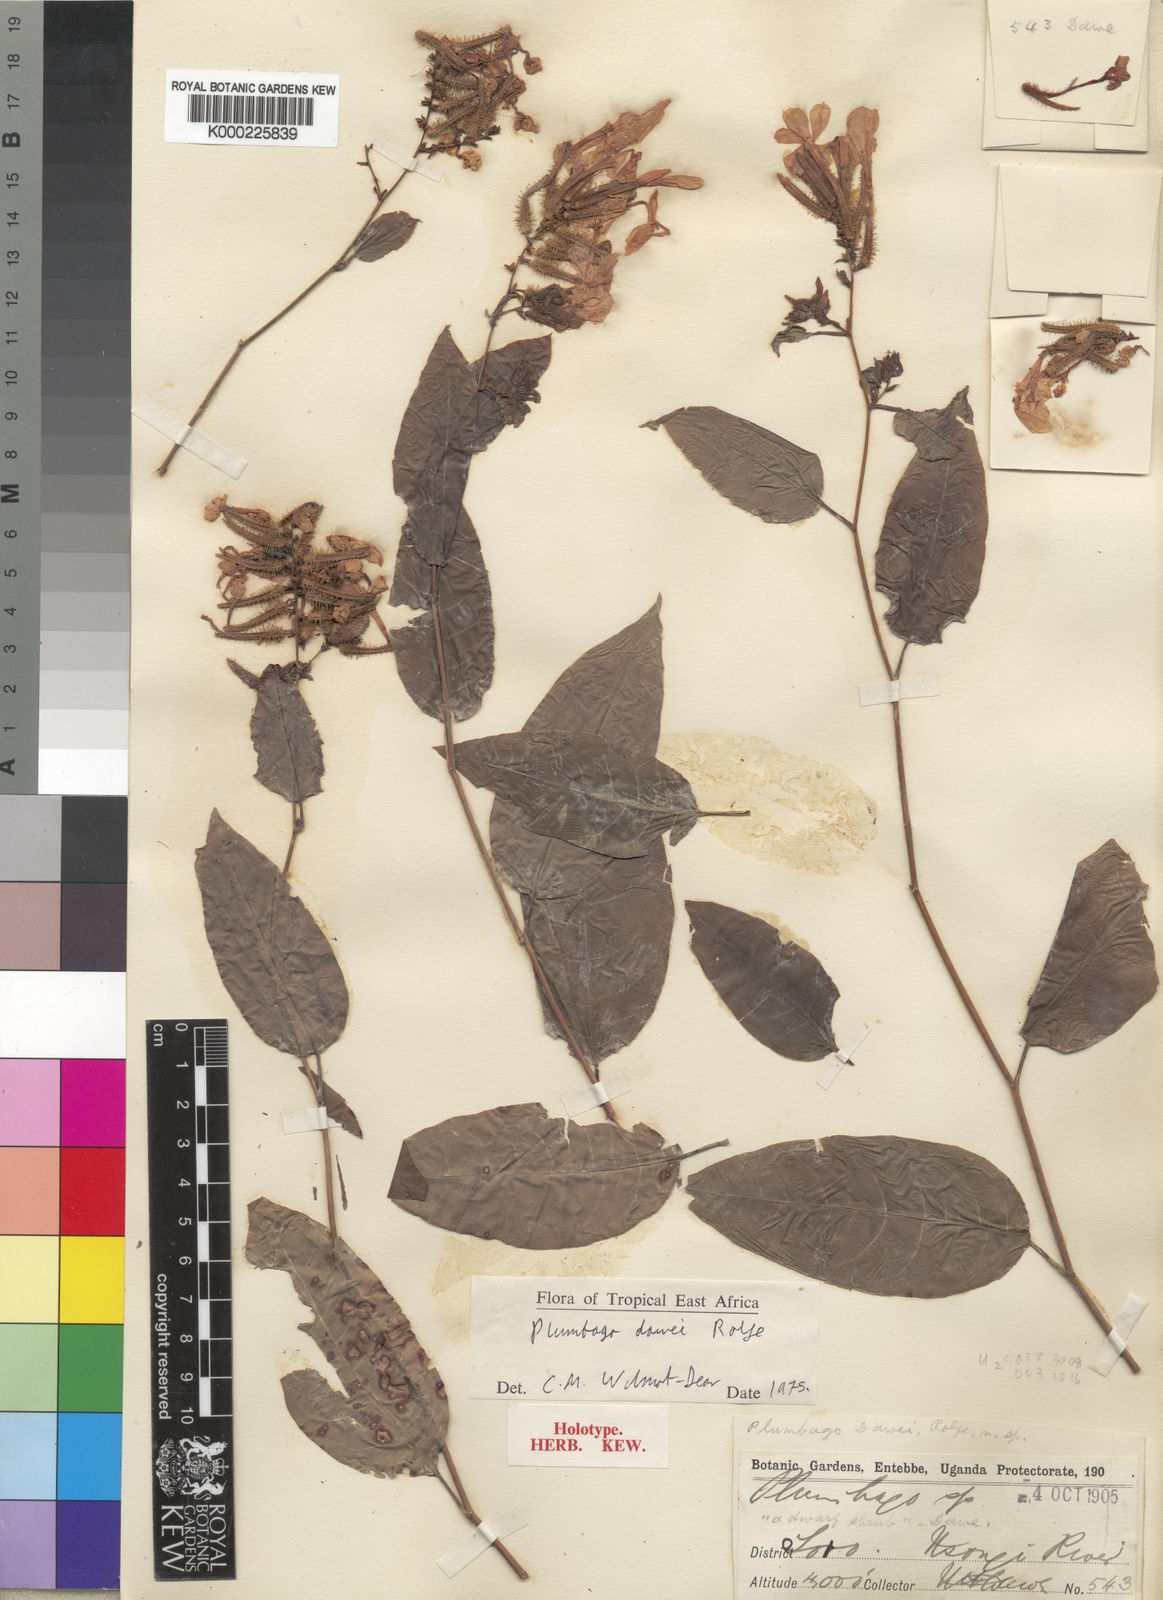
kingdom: Plantae
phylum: Tracheophyta
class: Magnoliopsida
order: Caryophyllales
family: Plumbaginaceae
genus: Plumbago
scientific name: Plumbago dawei
